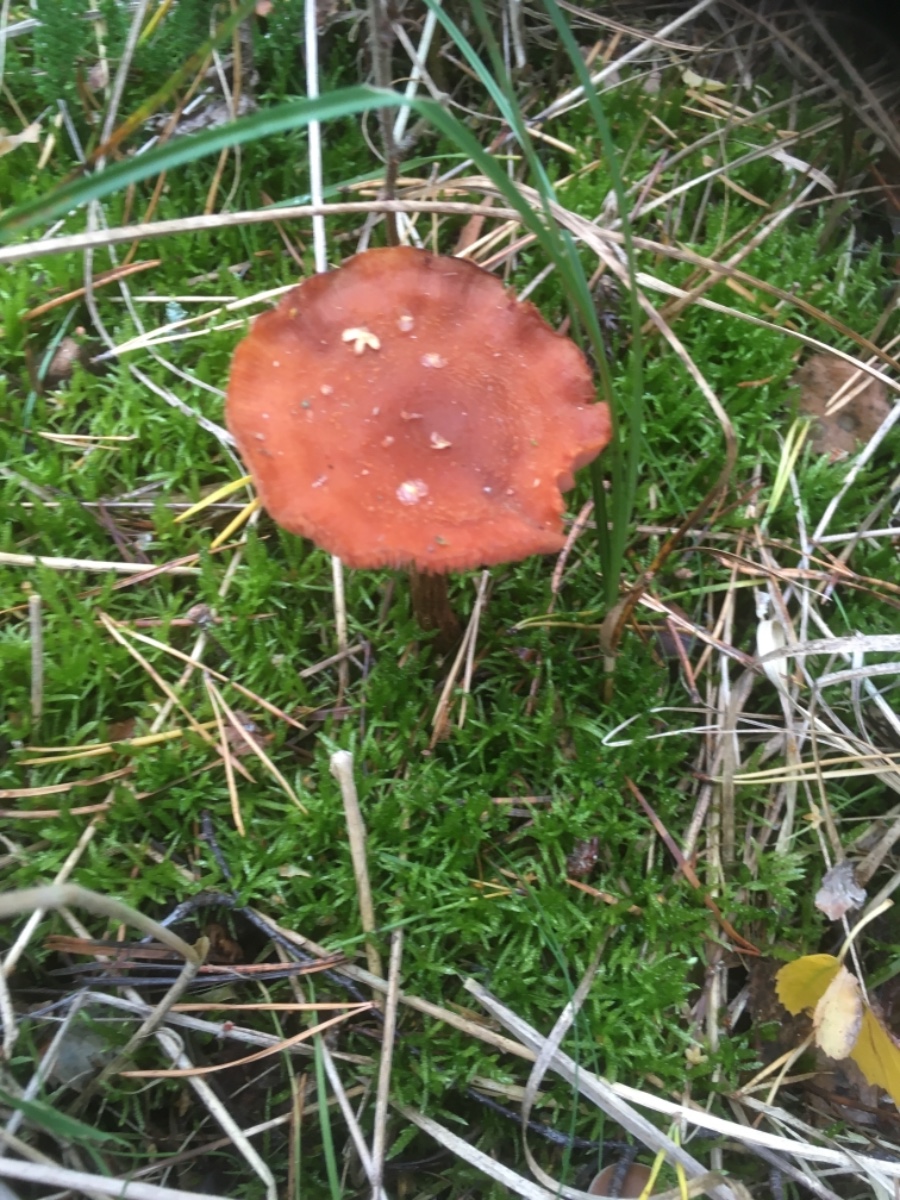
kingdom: Fungi
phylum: Basidiomycota
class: Agaricomycetes
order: Agaricales
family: Hydnangiaceae
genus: Laccaria
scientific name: Laccaria proxima
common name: stor ametysthat
